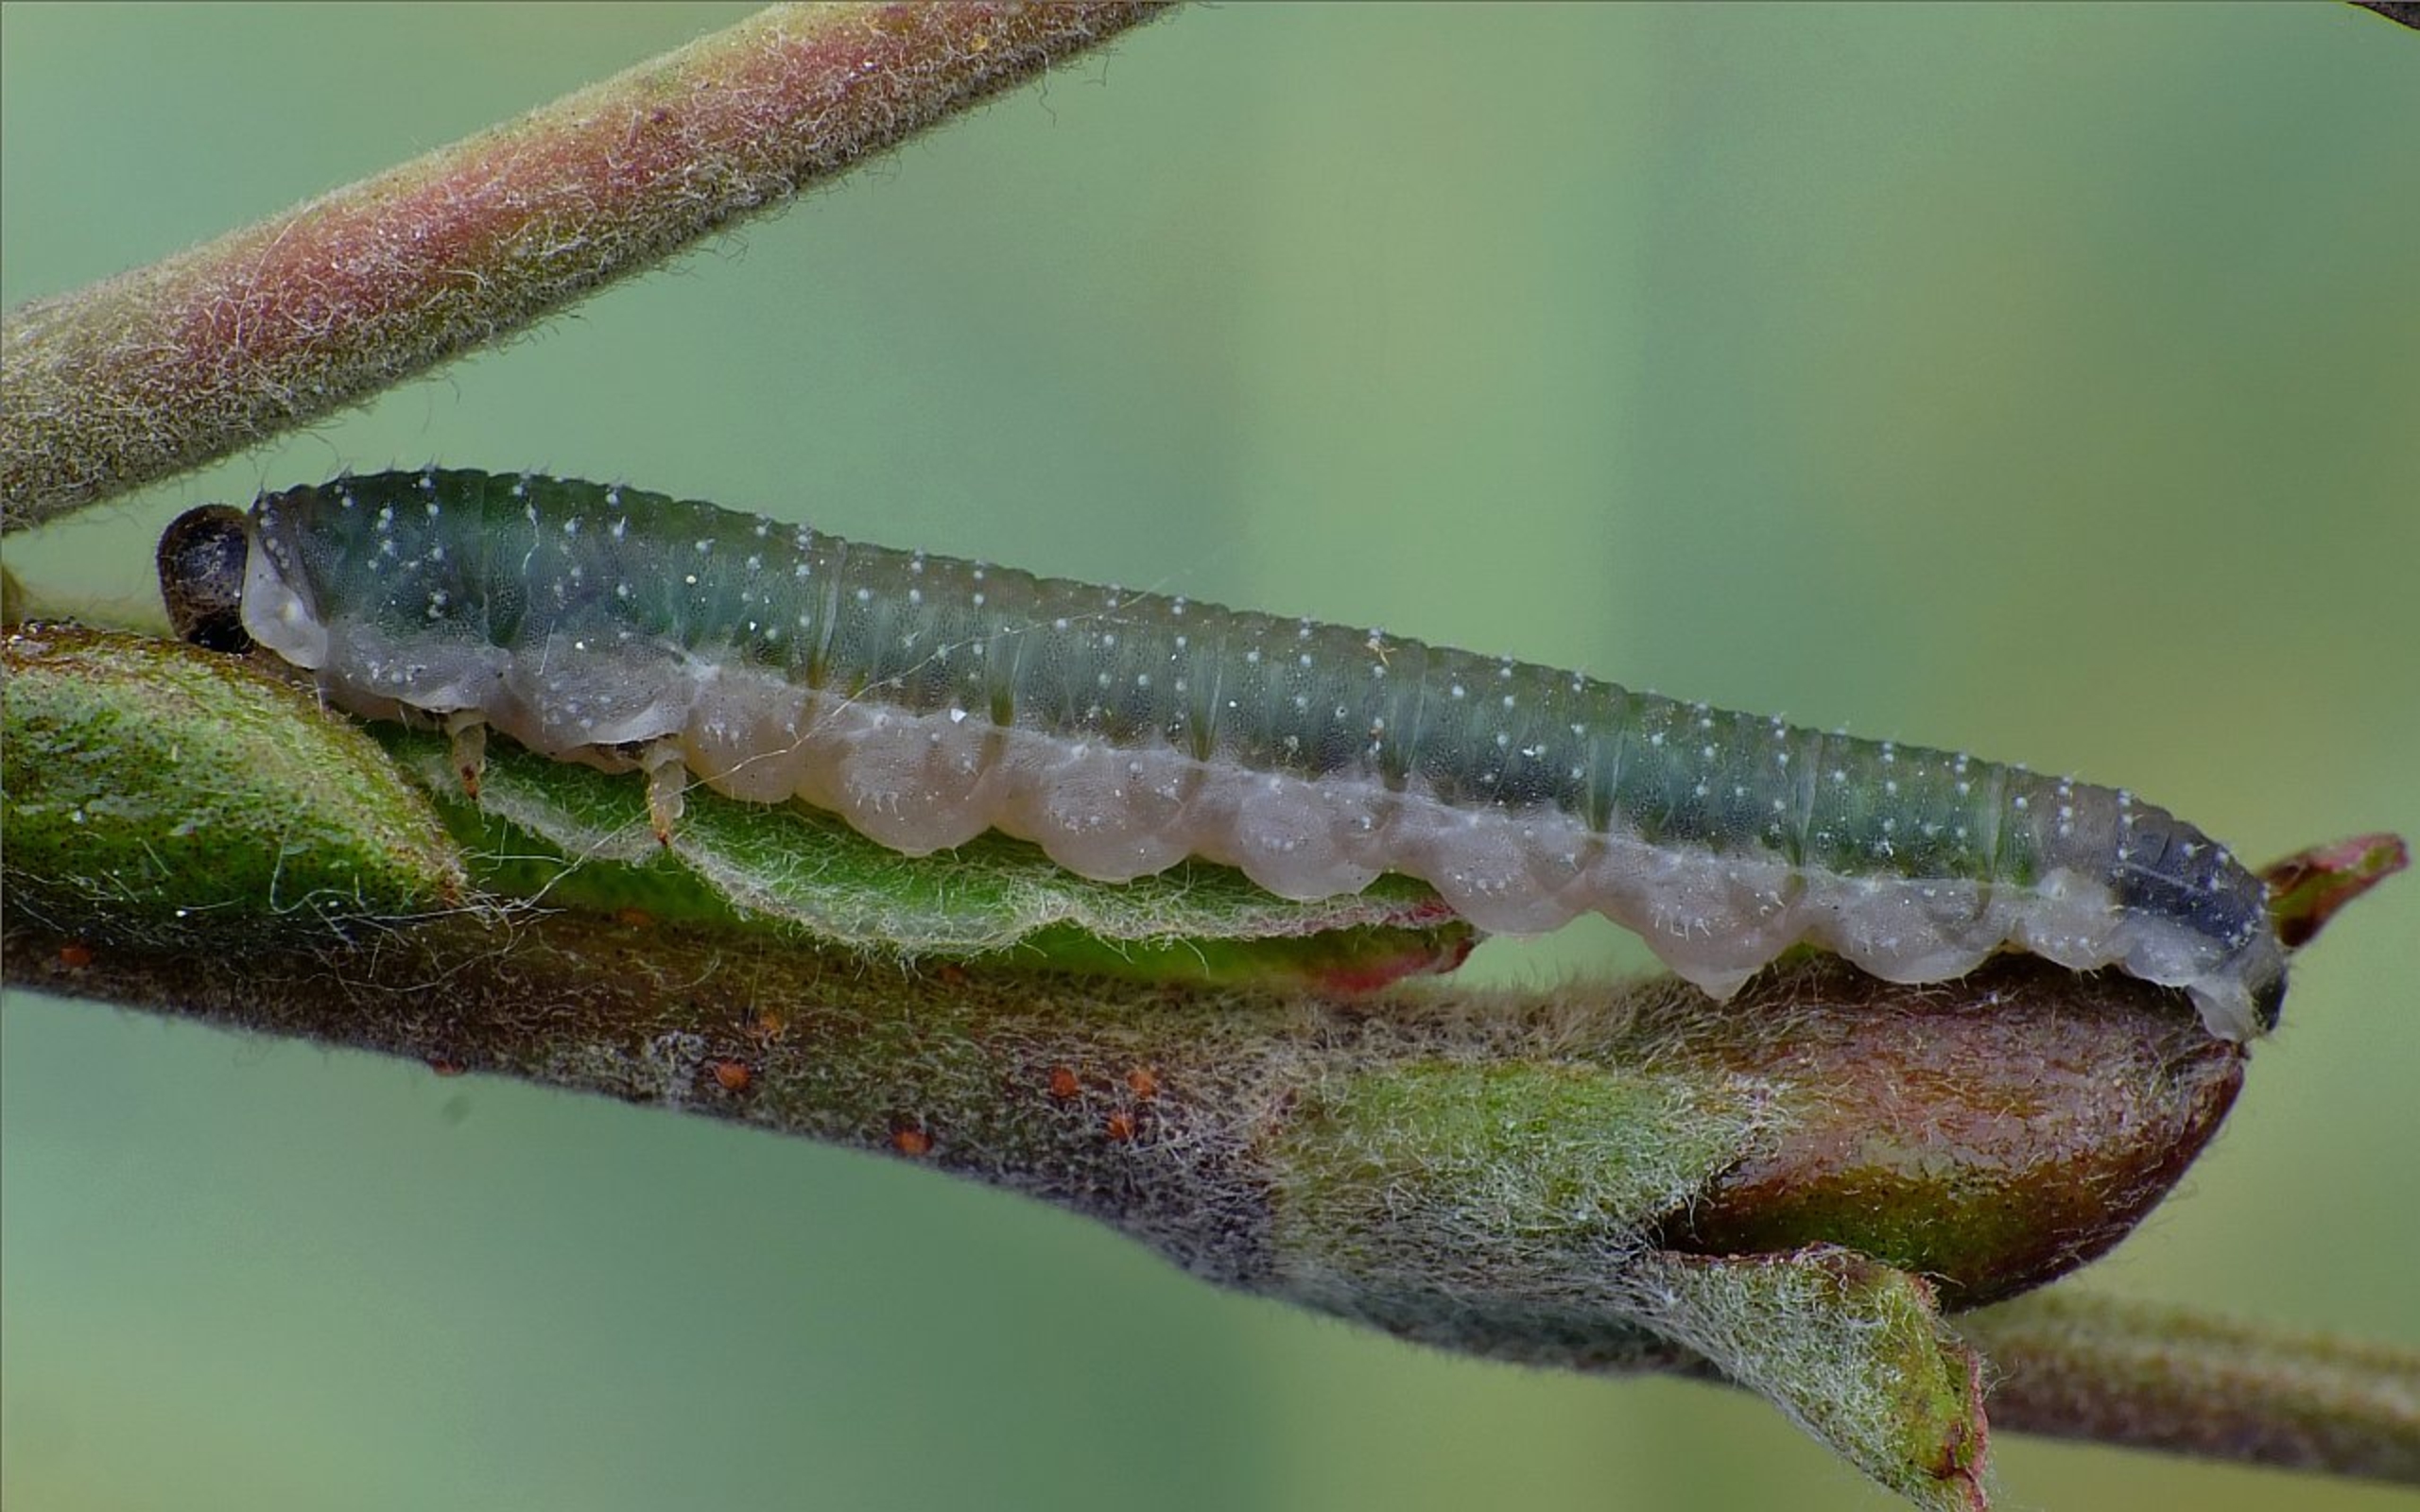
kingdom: Animalia
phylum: Arthropoda
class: Insecta
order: Hymenoptera
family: Tenthredinidae
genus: Nematinus
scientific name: Nematinus luteus
